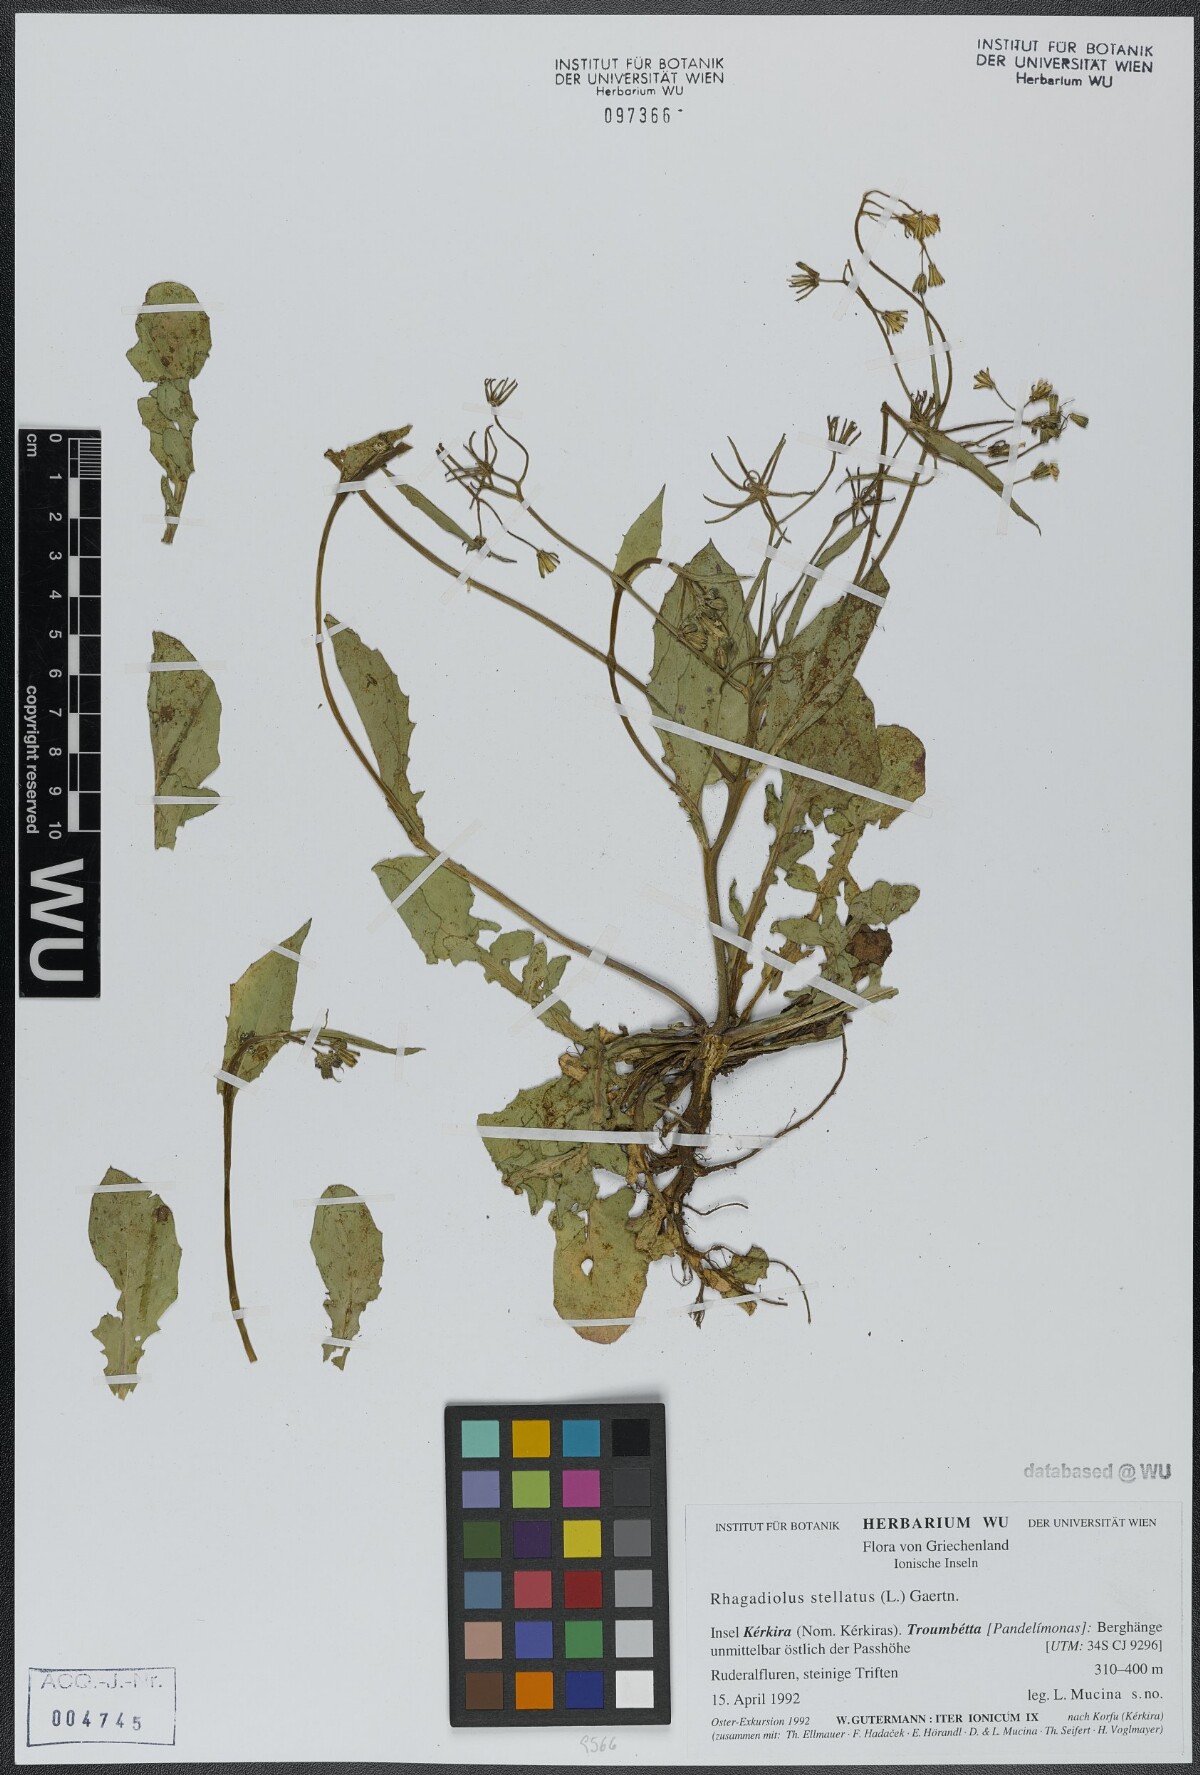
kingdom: Plantae
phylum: Tracheophyta
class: Magnoliopsida
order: Asterales
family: Asteraceae
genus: Rhagadiolus
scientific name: Rhagadiolus stellatus
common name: Star hawkbit
